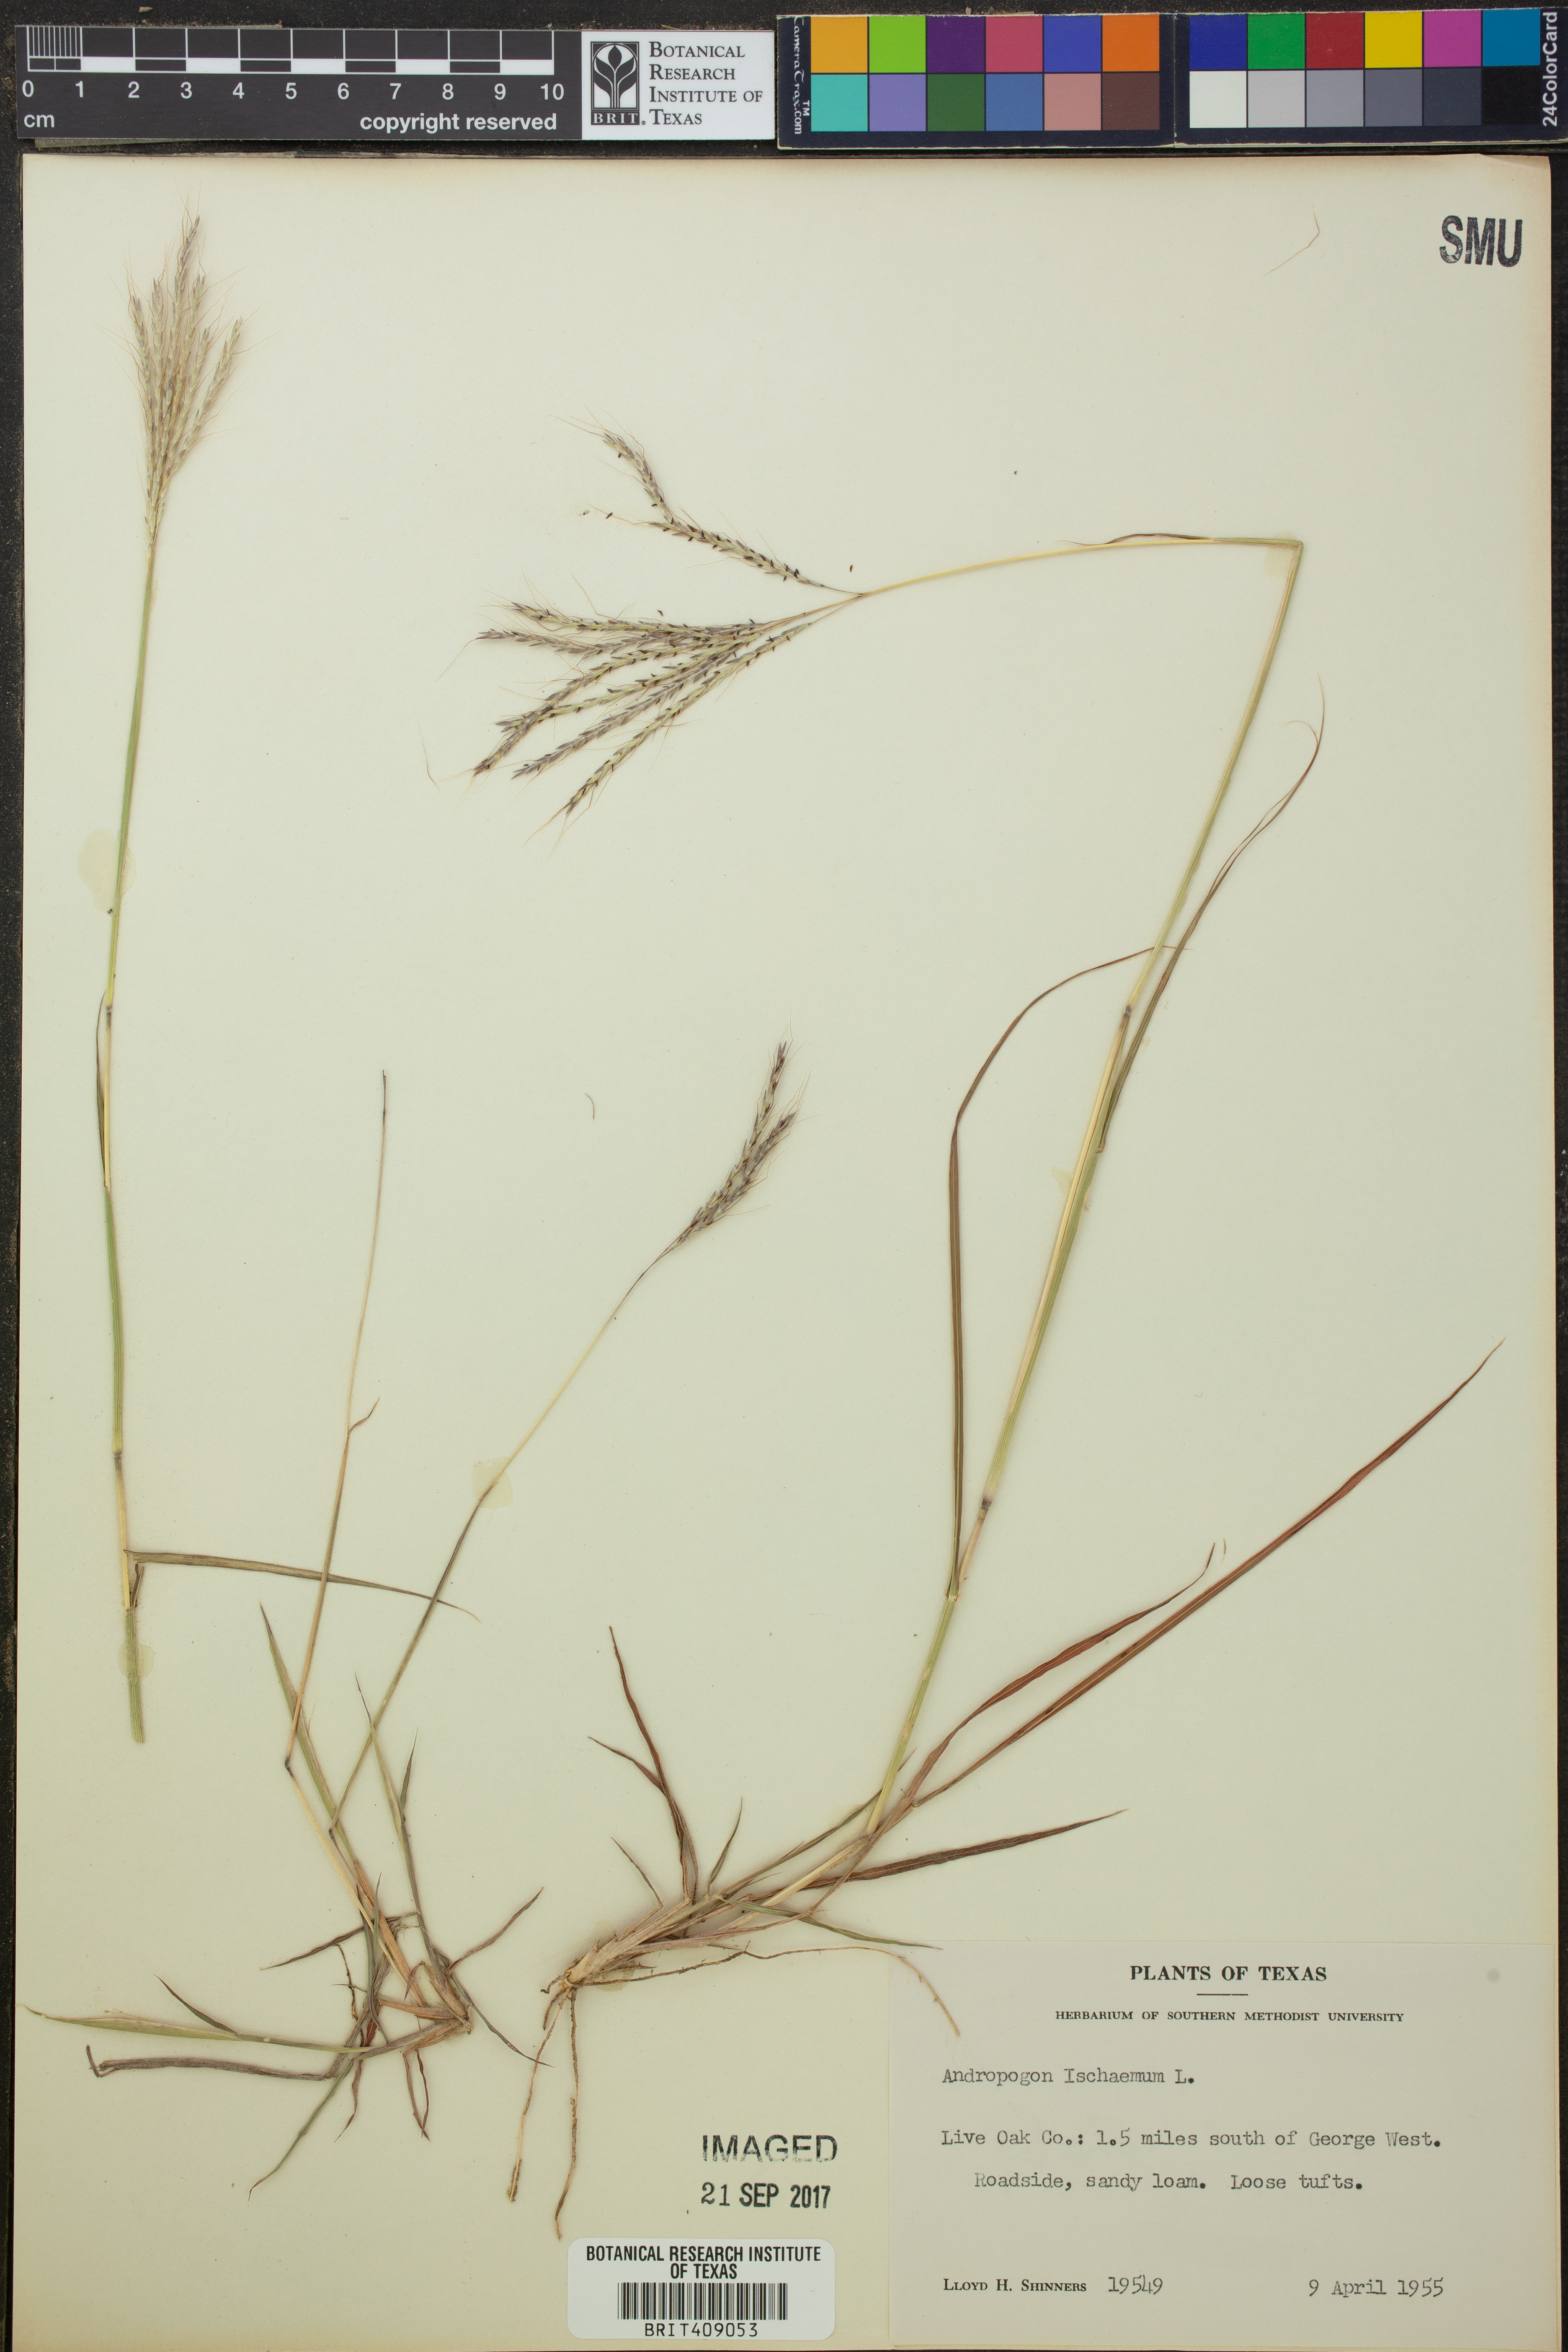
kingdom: Plantae
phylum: Tracheophyta
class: Liliopsida
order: Poales
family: Poaceae
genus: Andropogon
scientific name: Andropogon ischaemum
